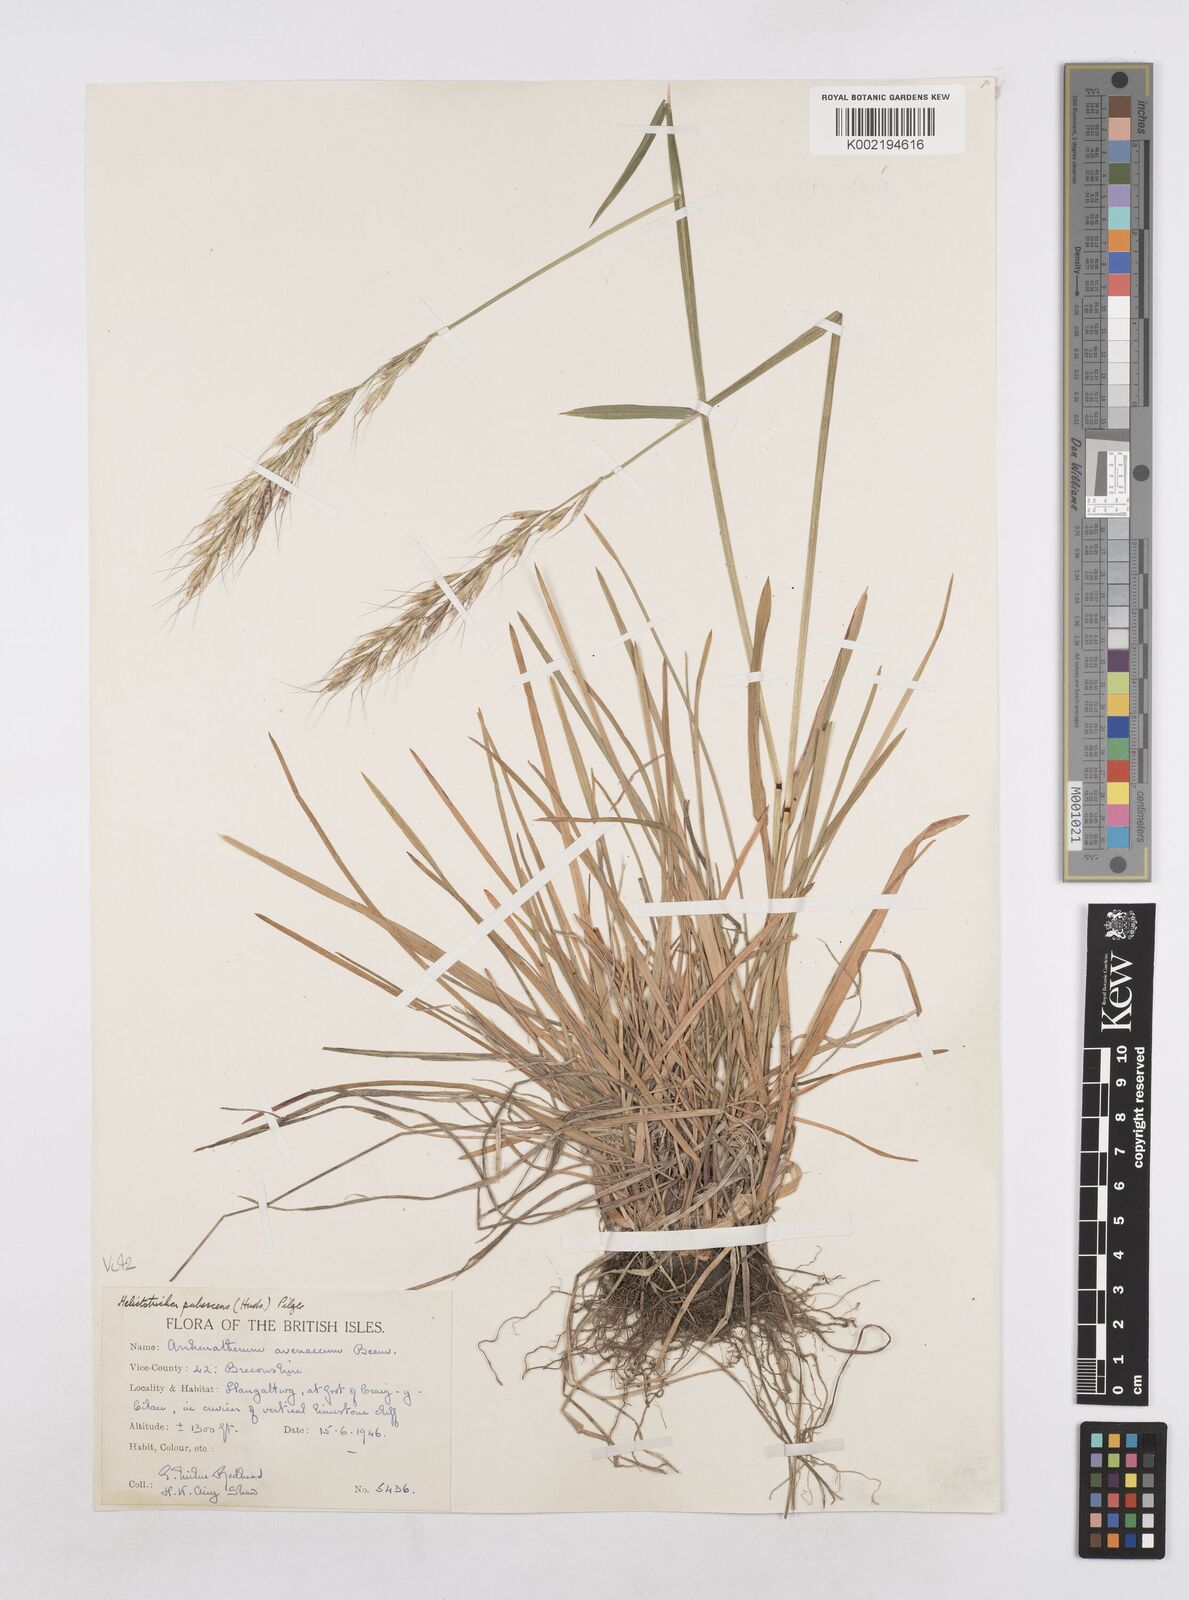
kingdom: Plantae
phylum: Tracheophyta
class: Liliopsida
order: Poales
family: Poaceae
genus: Avenula
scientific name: Avenula pubescens
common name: Downy alpine oatgrass
